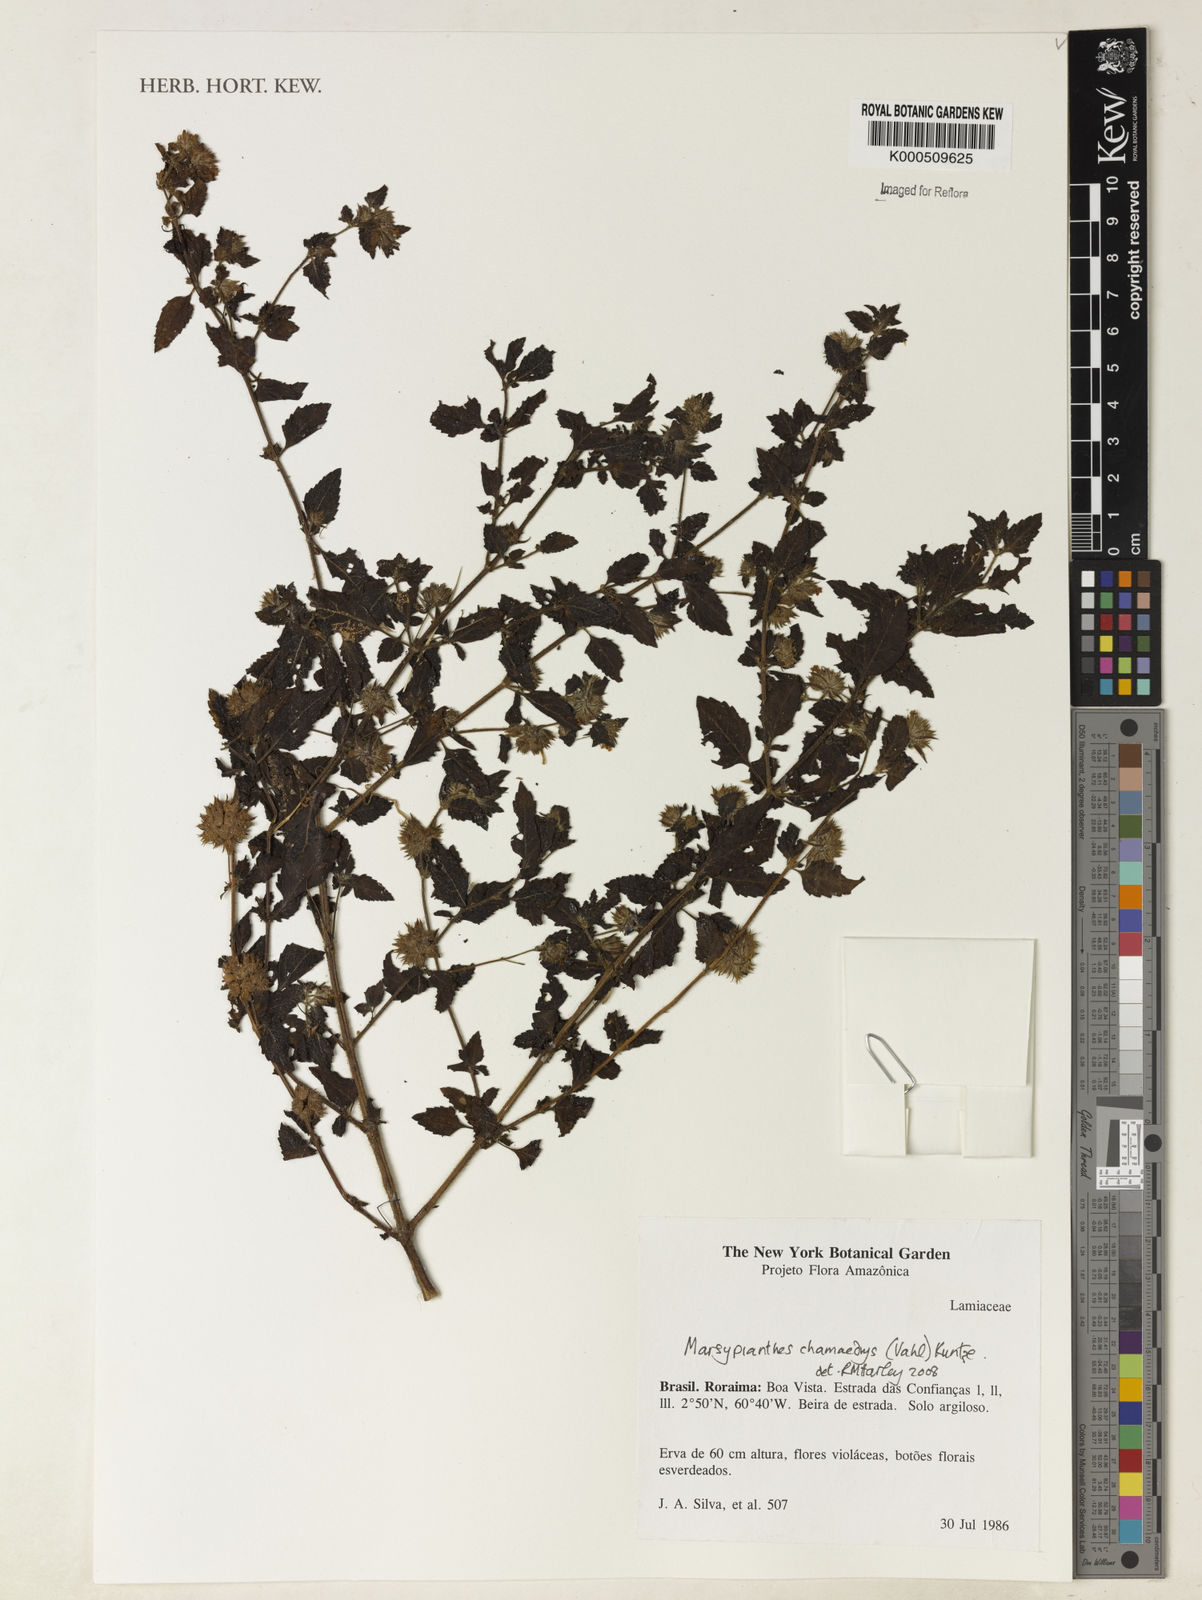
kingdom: Plantae
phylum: Tracheophyta
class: Magnoliopsida
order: Lamiales
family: Lamiaceae
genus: Marsypianthes
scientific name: Marsypianthes chamaedrys
